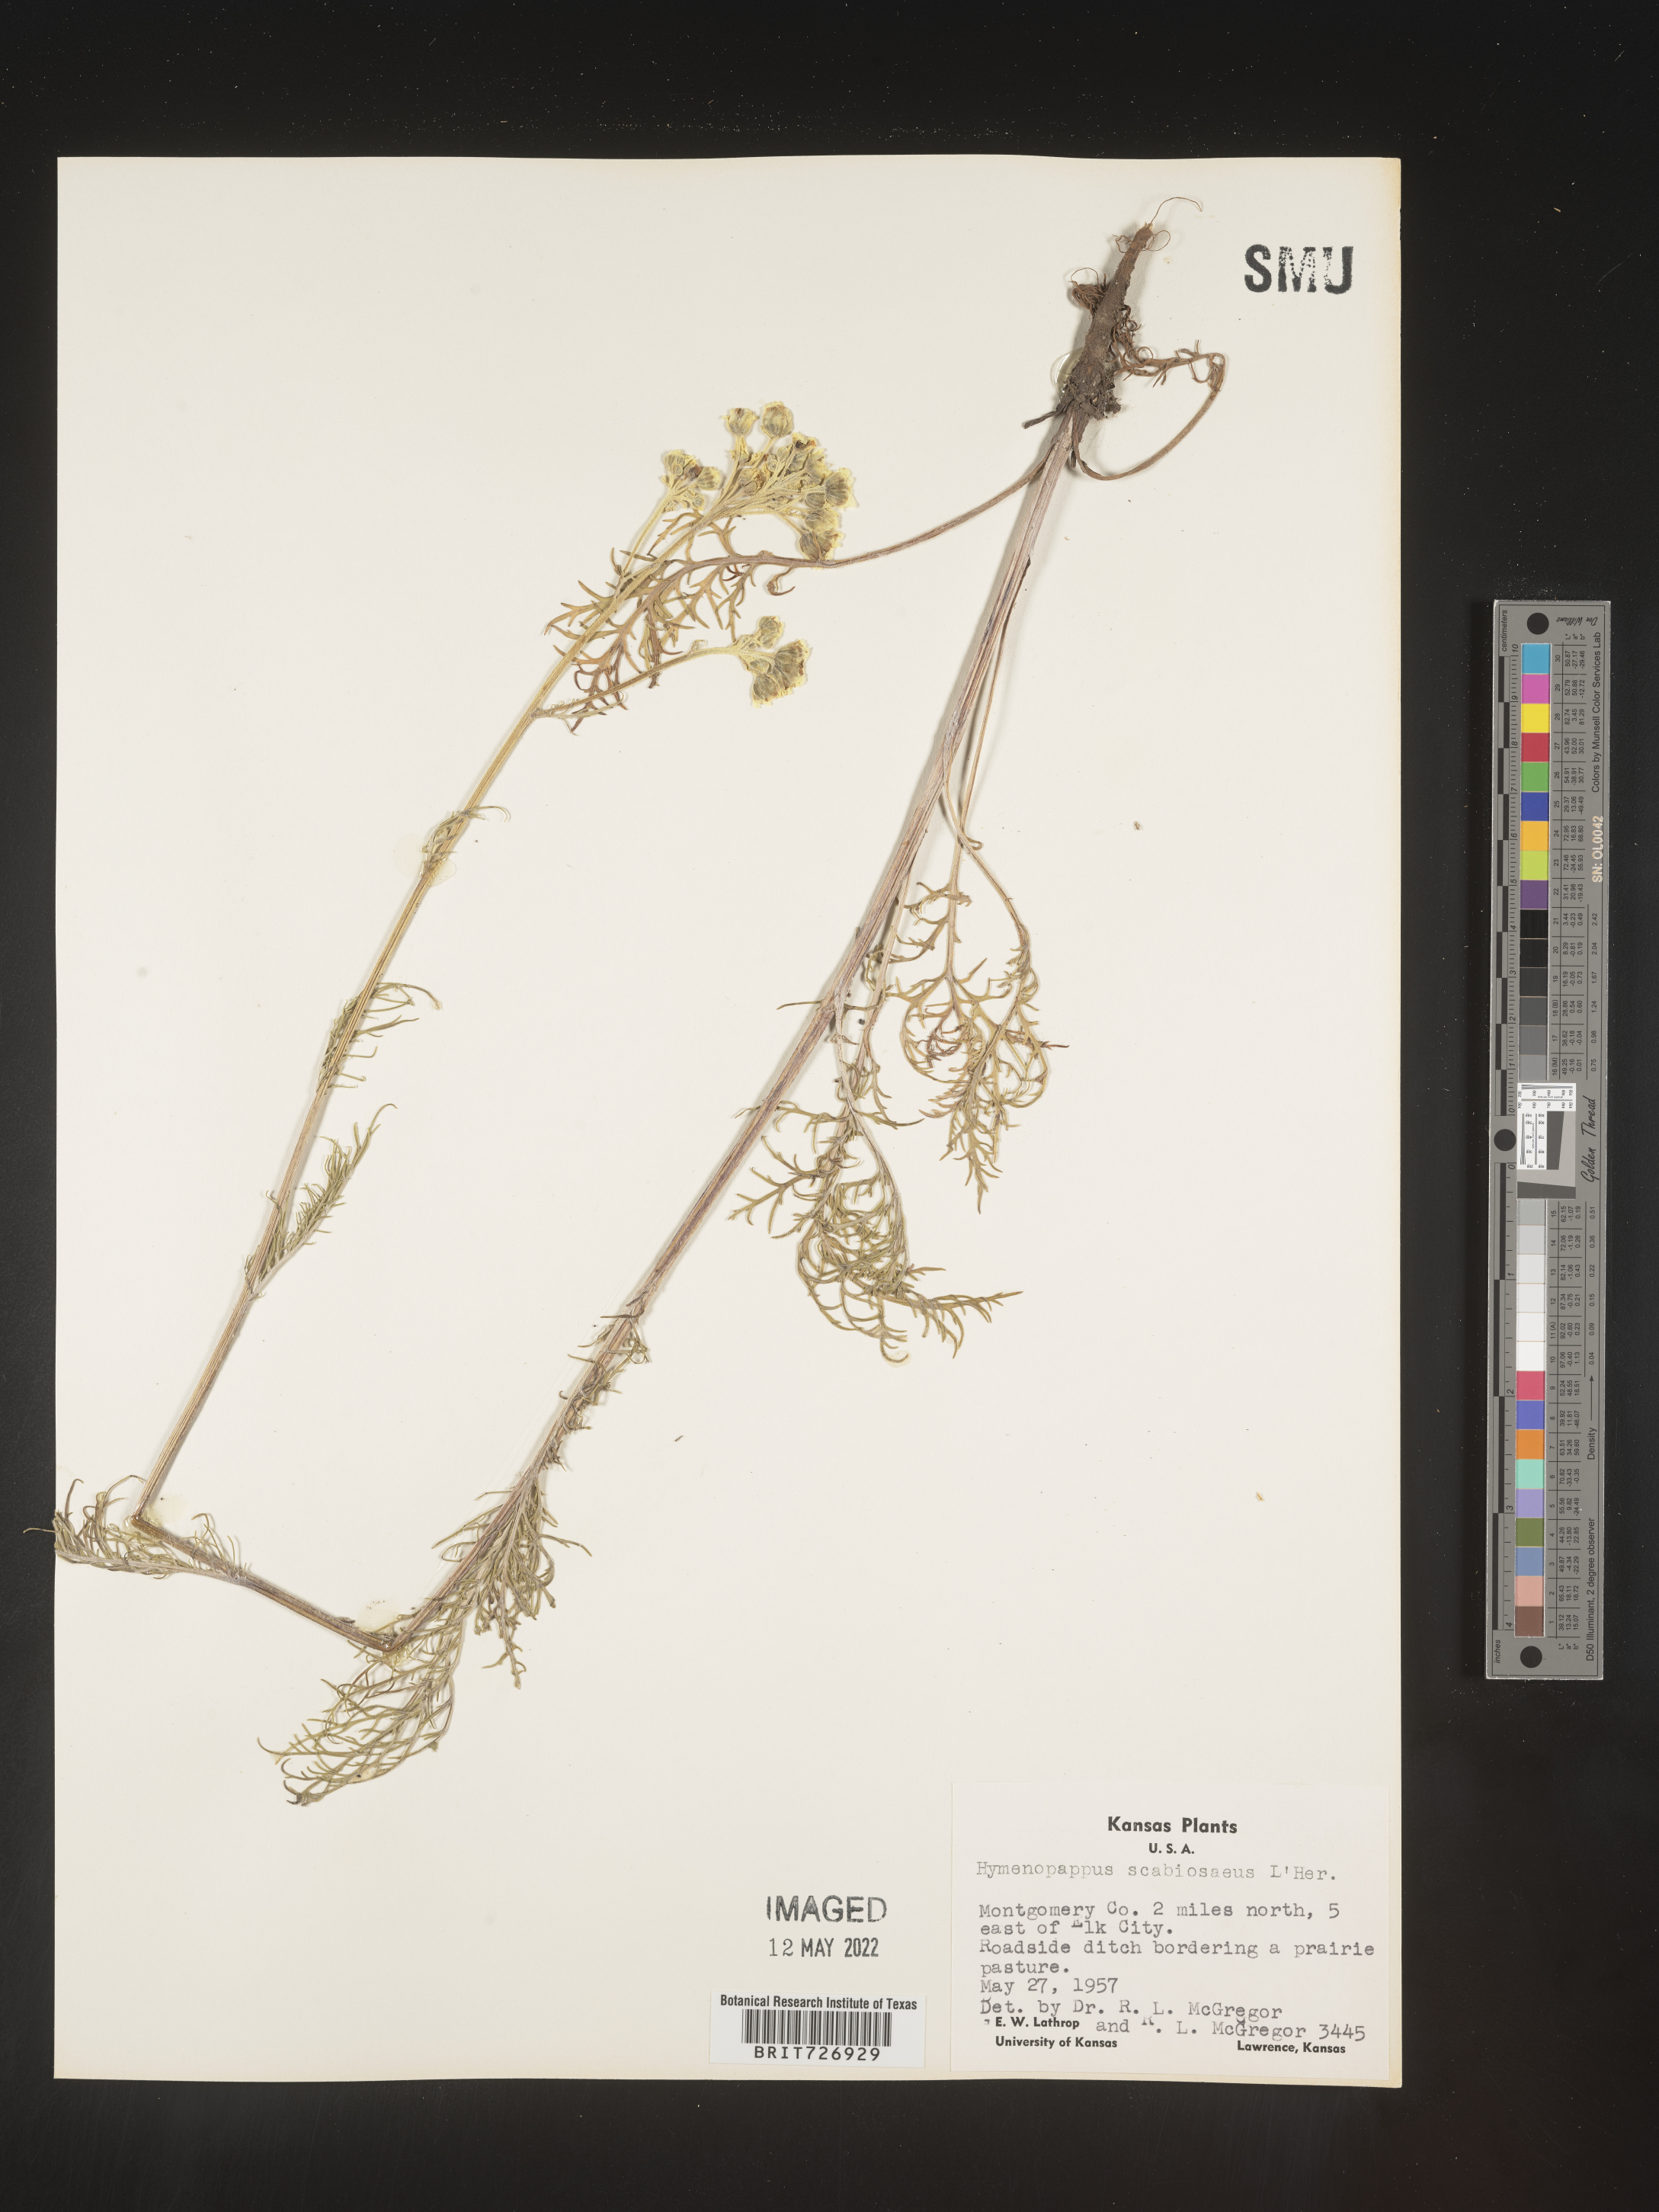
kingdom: Plantae
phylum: Tracheophyta
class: Magnoliopsida
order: Asterales
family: Asteraceae
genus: Hymenopappus
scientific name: Hymenopappus scabiosaeus
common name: Carolina woollywhite
